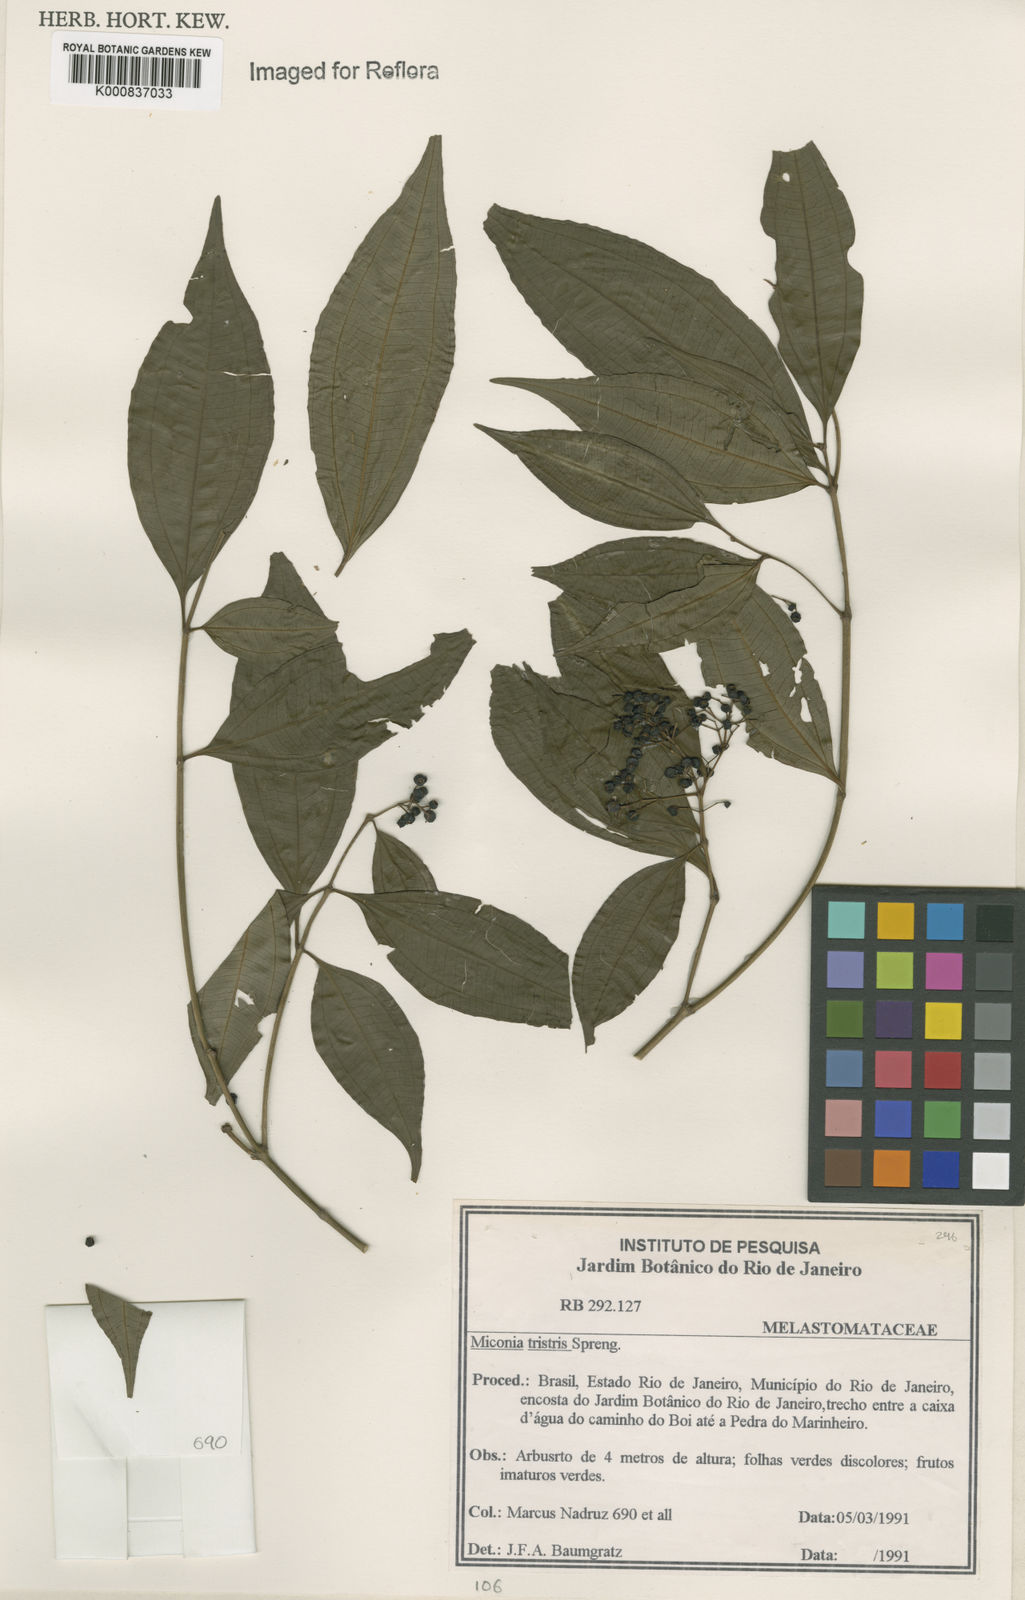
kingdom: Plantae
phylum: Tracheophyta
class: Magnoliopsida
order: Myrtales
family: Melastomataceae
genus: Miconia
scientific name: Miconia
